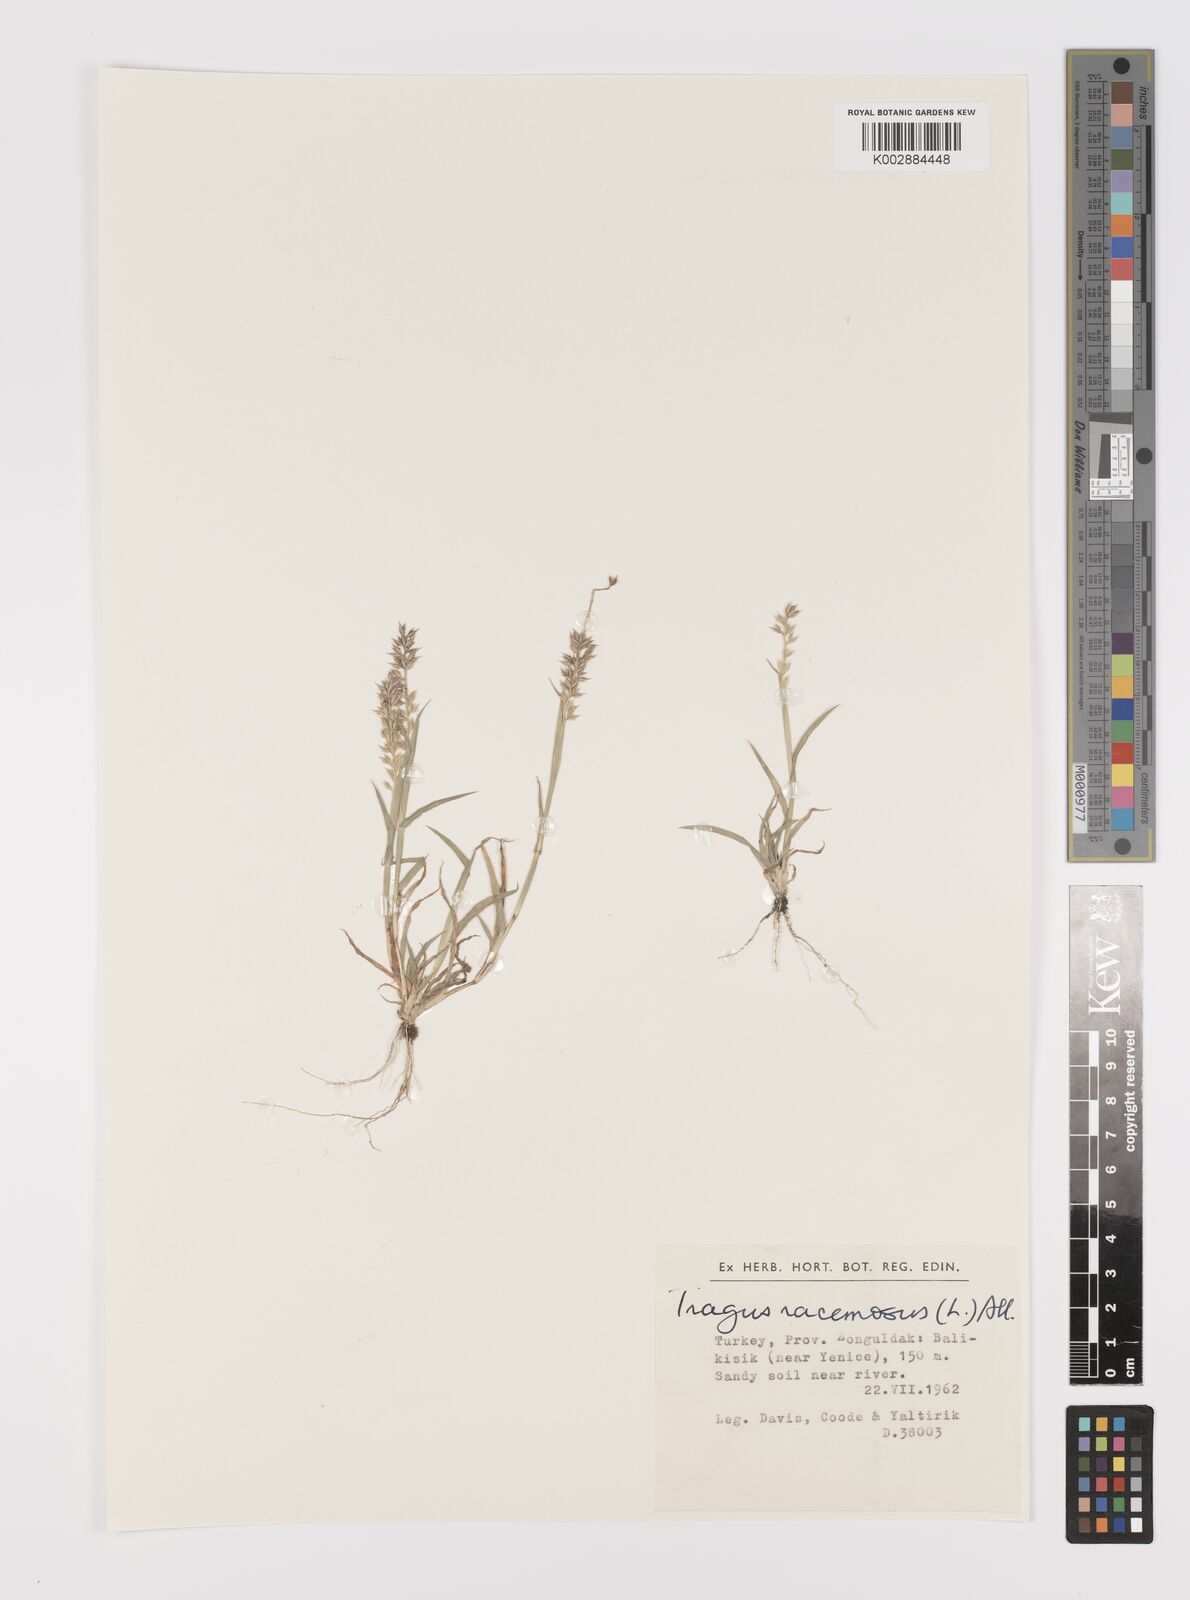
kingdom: Plantae
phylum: Tracheophyta
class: Liliopsida
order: Poales
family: Poaceae
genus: Tragus
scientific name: Tragus racemosus
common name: European bur-grass
